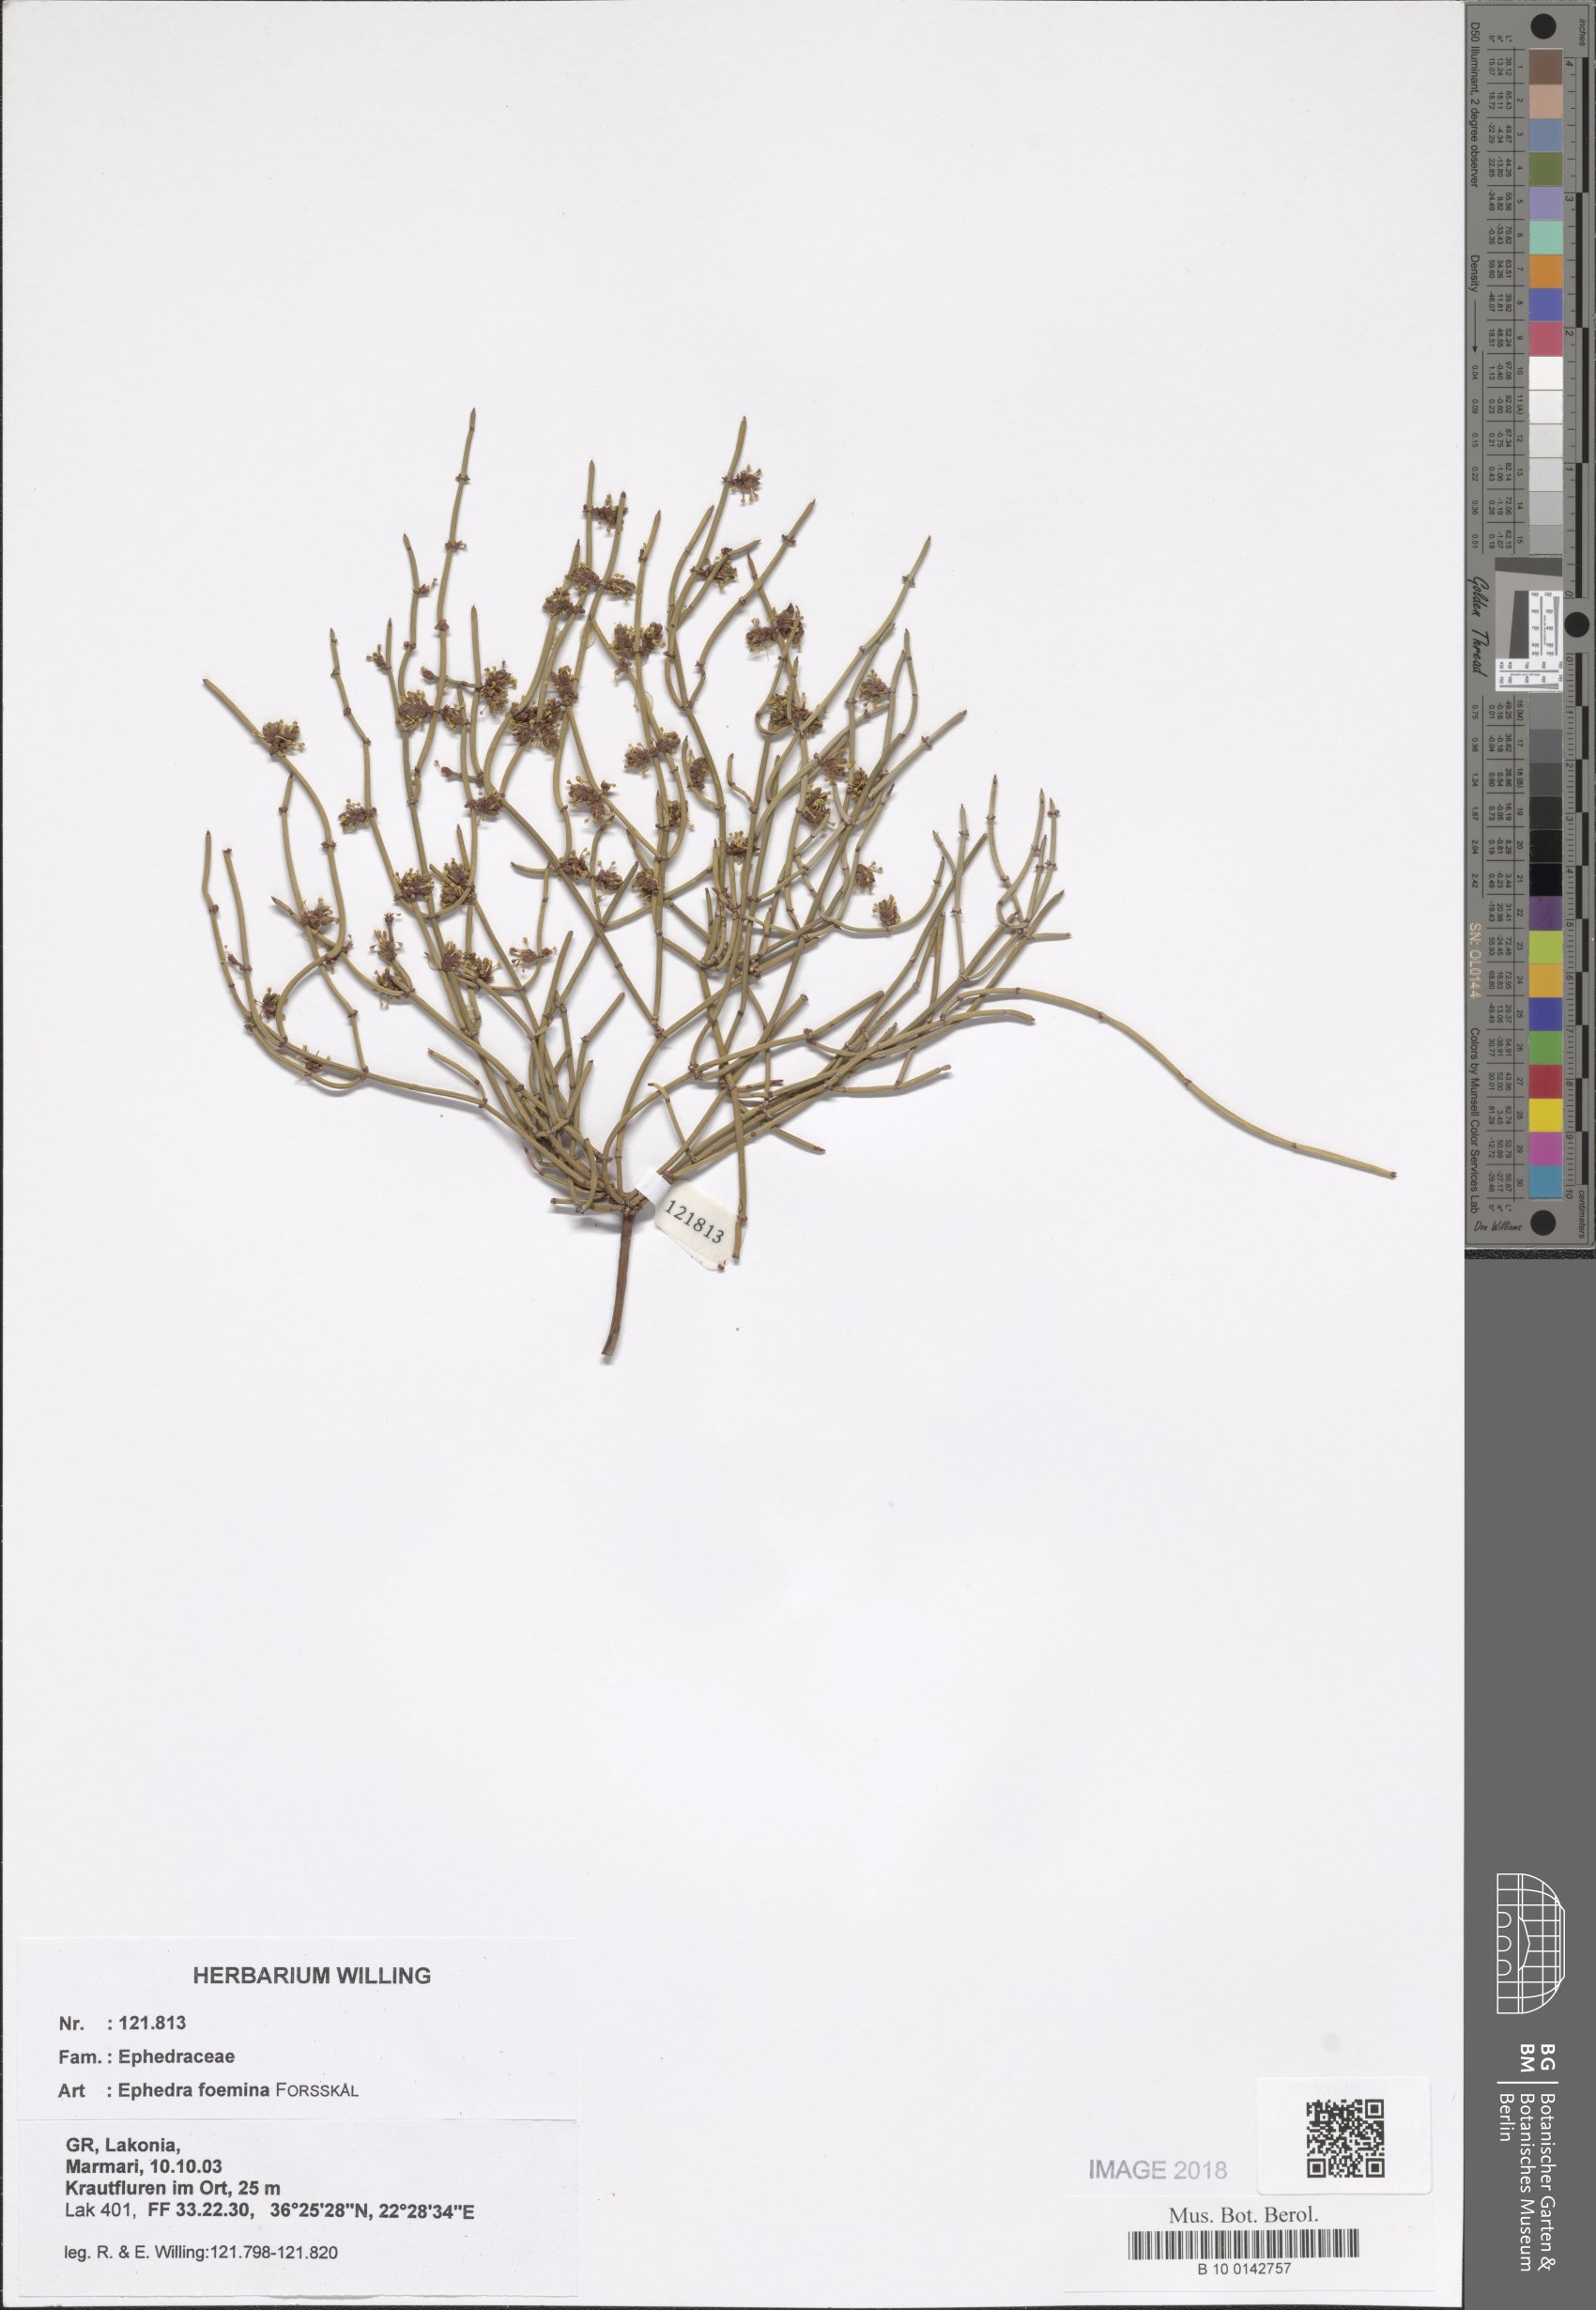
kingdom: Plantae
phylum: Tracheophyta
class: Gnetopsida
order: Ephedrales
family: Ephedraceae
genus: Ephedra
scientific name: Ephedra foeminea
